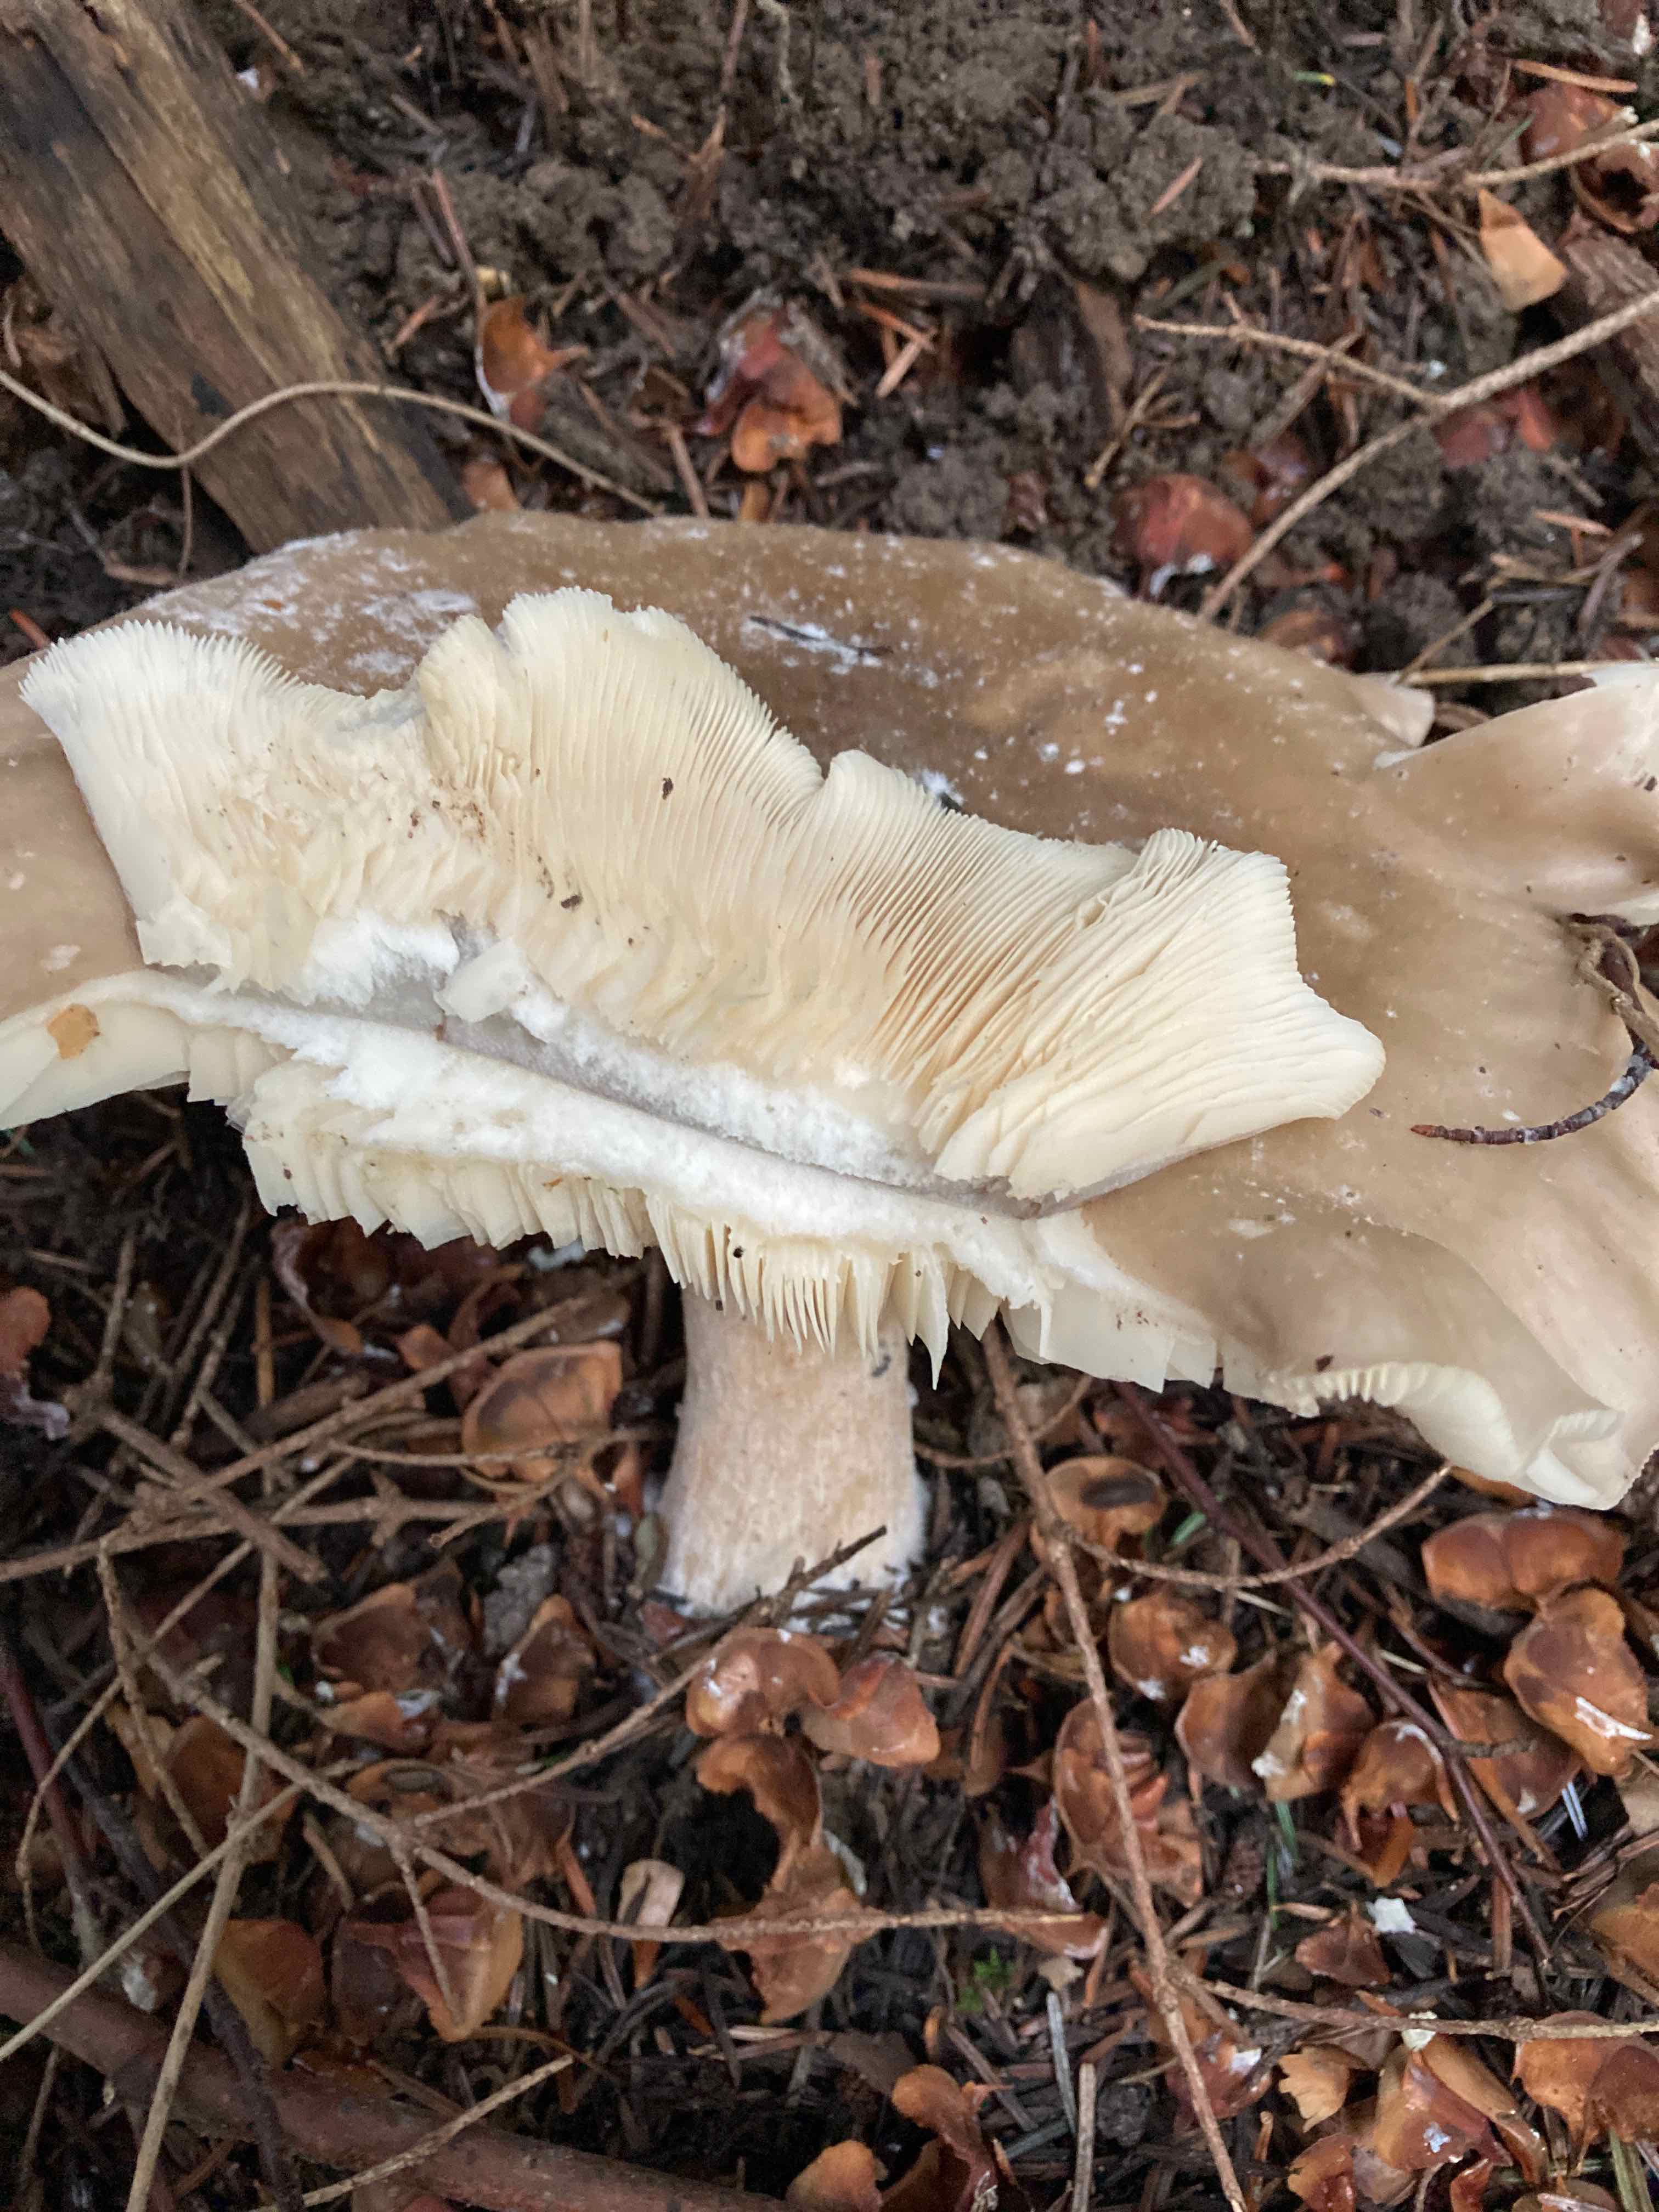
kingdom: Fungi
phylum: Basidiomycota
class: Agaricomycetes
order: Agaricales
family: Tricholomataceae
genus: Clitocybe
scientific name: Clitocybe nebularis
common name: tåge-tragthat
